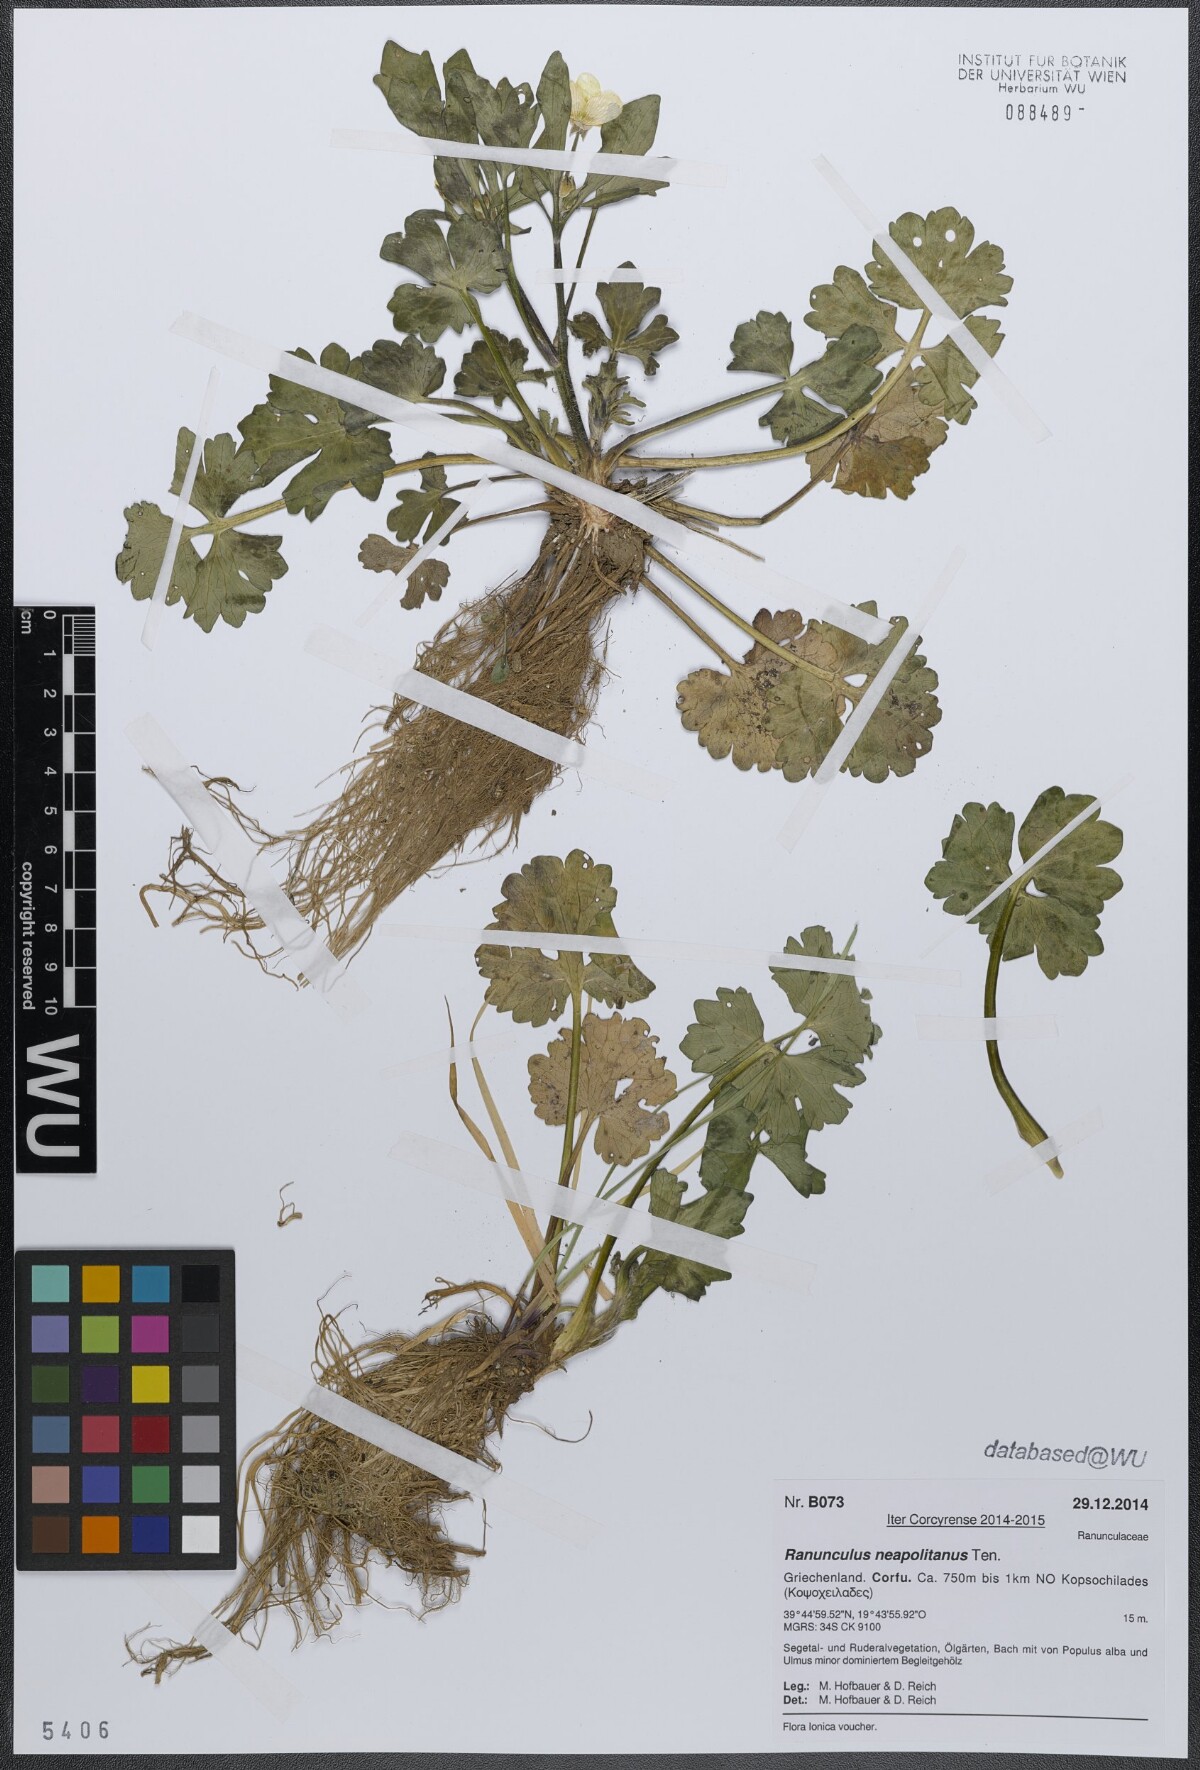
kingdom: Plantae
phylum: Tracheophyta
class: Magnoliopsida
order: Ranunculales
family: Ranunculaceae
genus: Ranunculus
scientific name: Ranunculus neapolitanus
